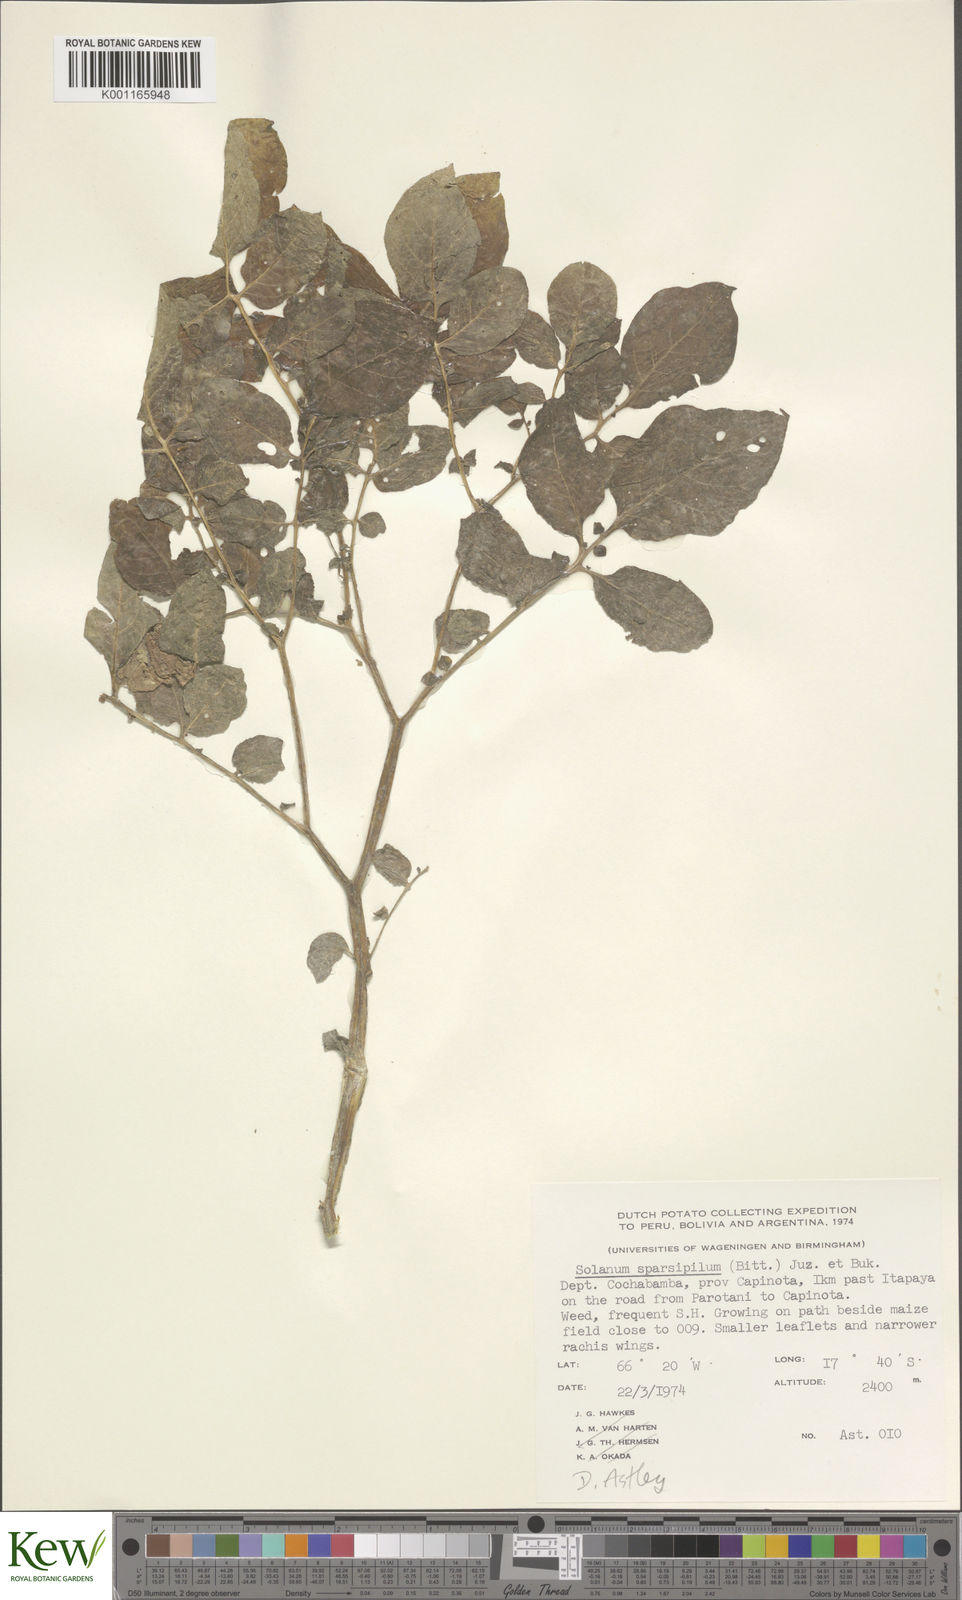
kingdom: Plantae
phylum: Tracheophyta
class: Magnoliopsida
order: Solanales
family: Solanaceae
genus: Solanum
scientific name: Solanum brevicaule
